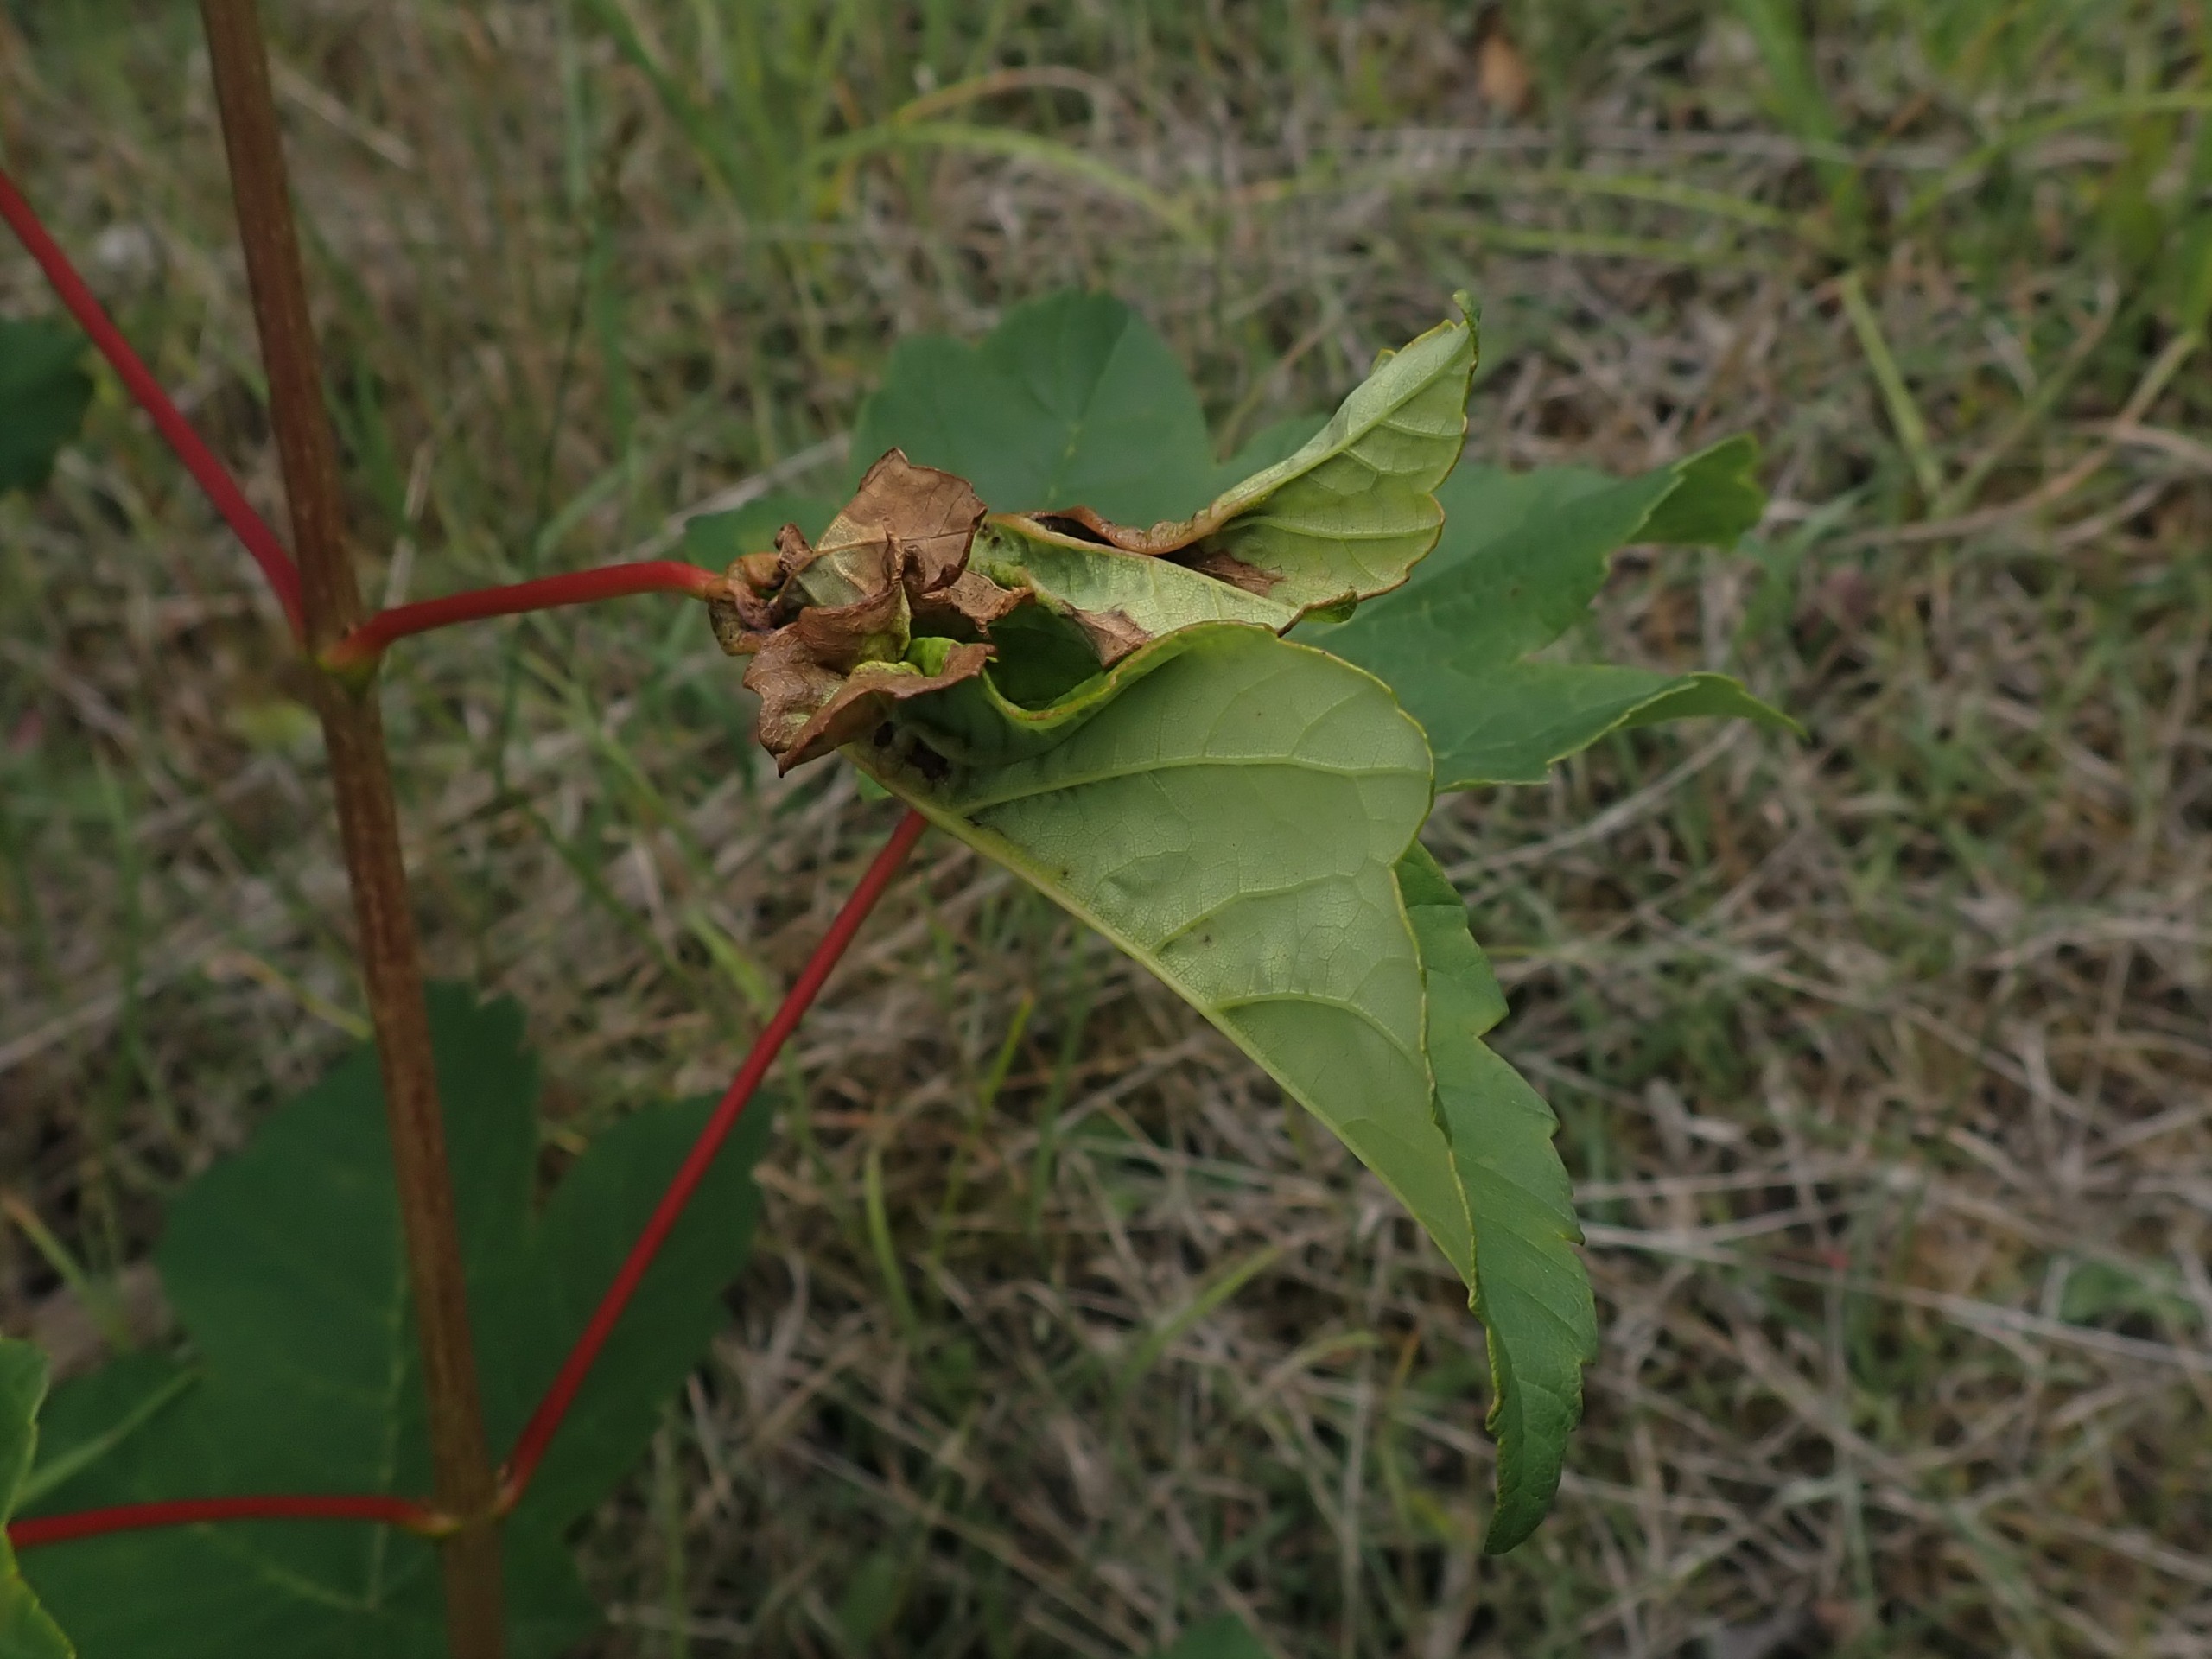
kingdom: Animalia
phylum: Arthropoda
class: Insecta
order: Diptera
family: Cecidomyiidae
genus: Dasineura
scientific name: Dasineura irregularis
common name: Ahornkrusegalmyg
